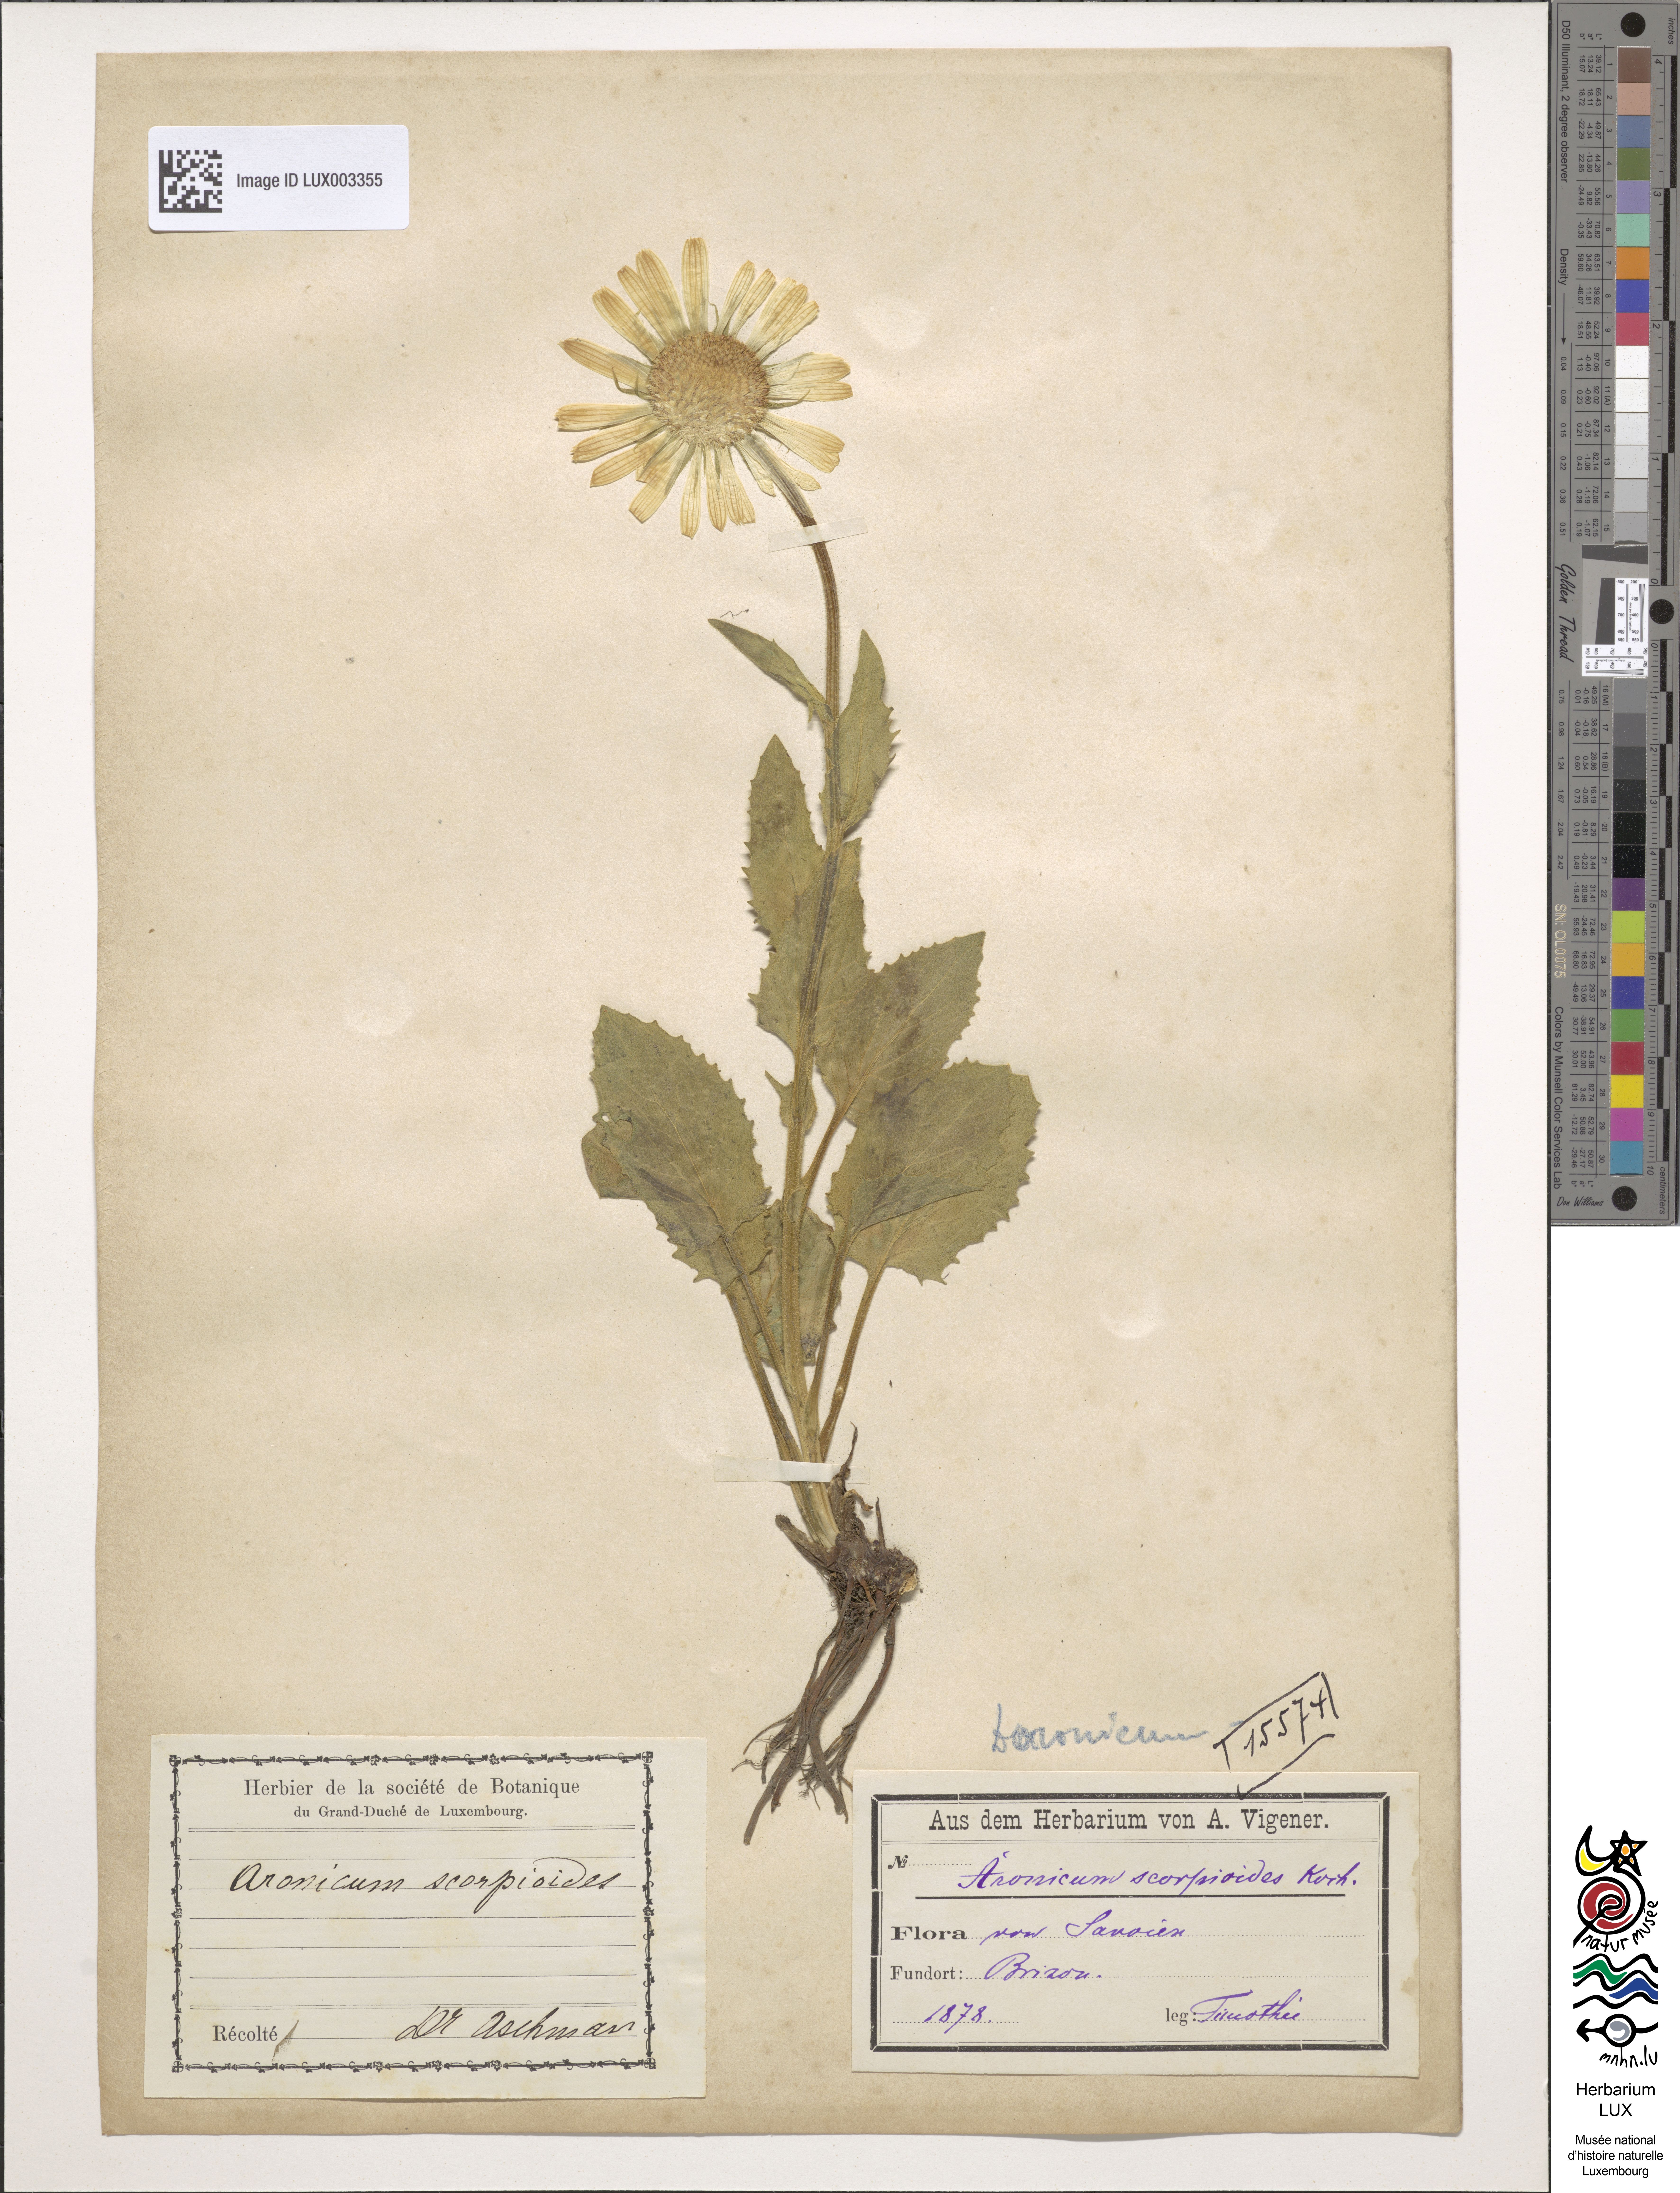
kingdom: Plantae
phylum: Tracheophyta
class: Magnoliopsida
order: Asterales
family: Asteraceae
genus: Doronicum
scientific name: Doronicum grandiflorum
